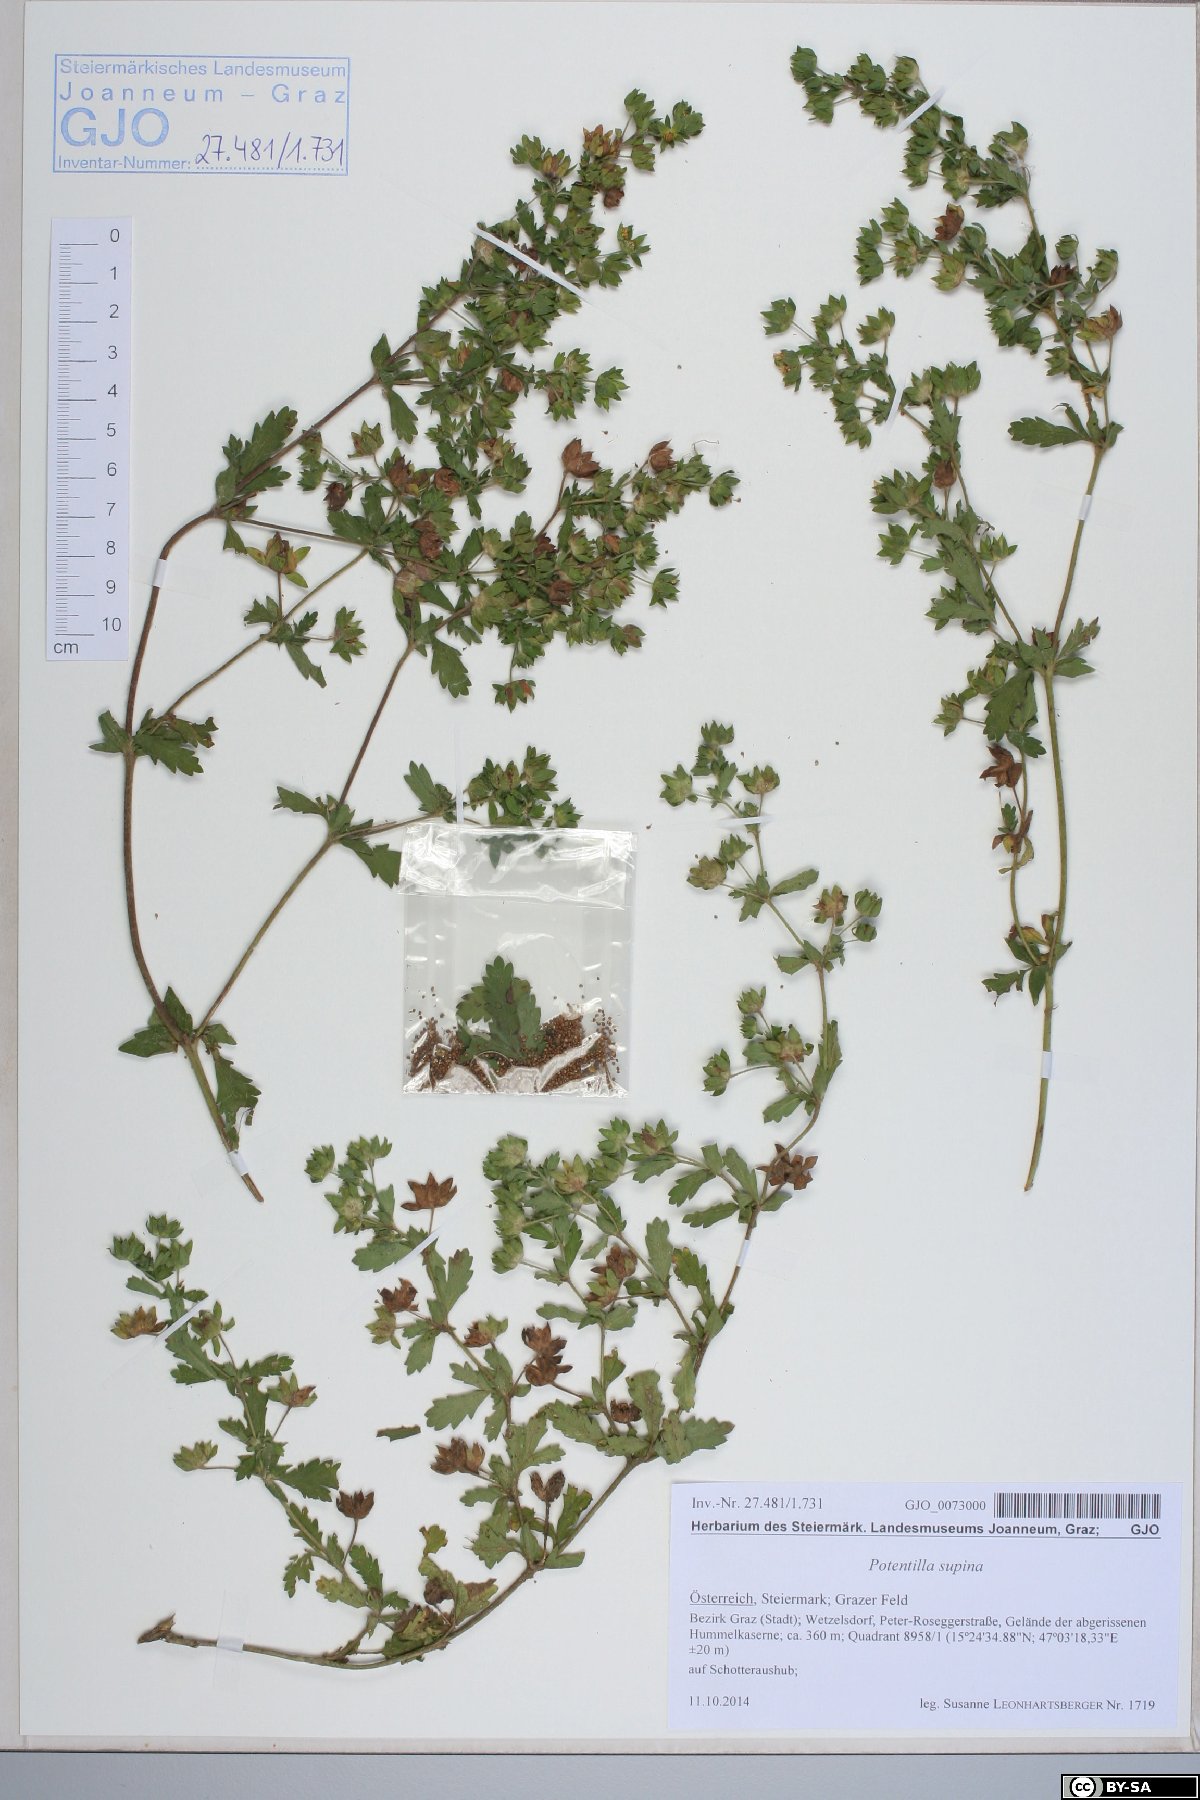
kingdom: Plantae
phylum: Tracheophyta
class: Magnoliopsida
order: Rosales
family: Rosaceae
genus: Potentilla
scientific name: Potentilla norvegica
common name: Ternate-leaved cinquefoil
